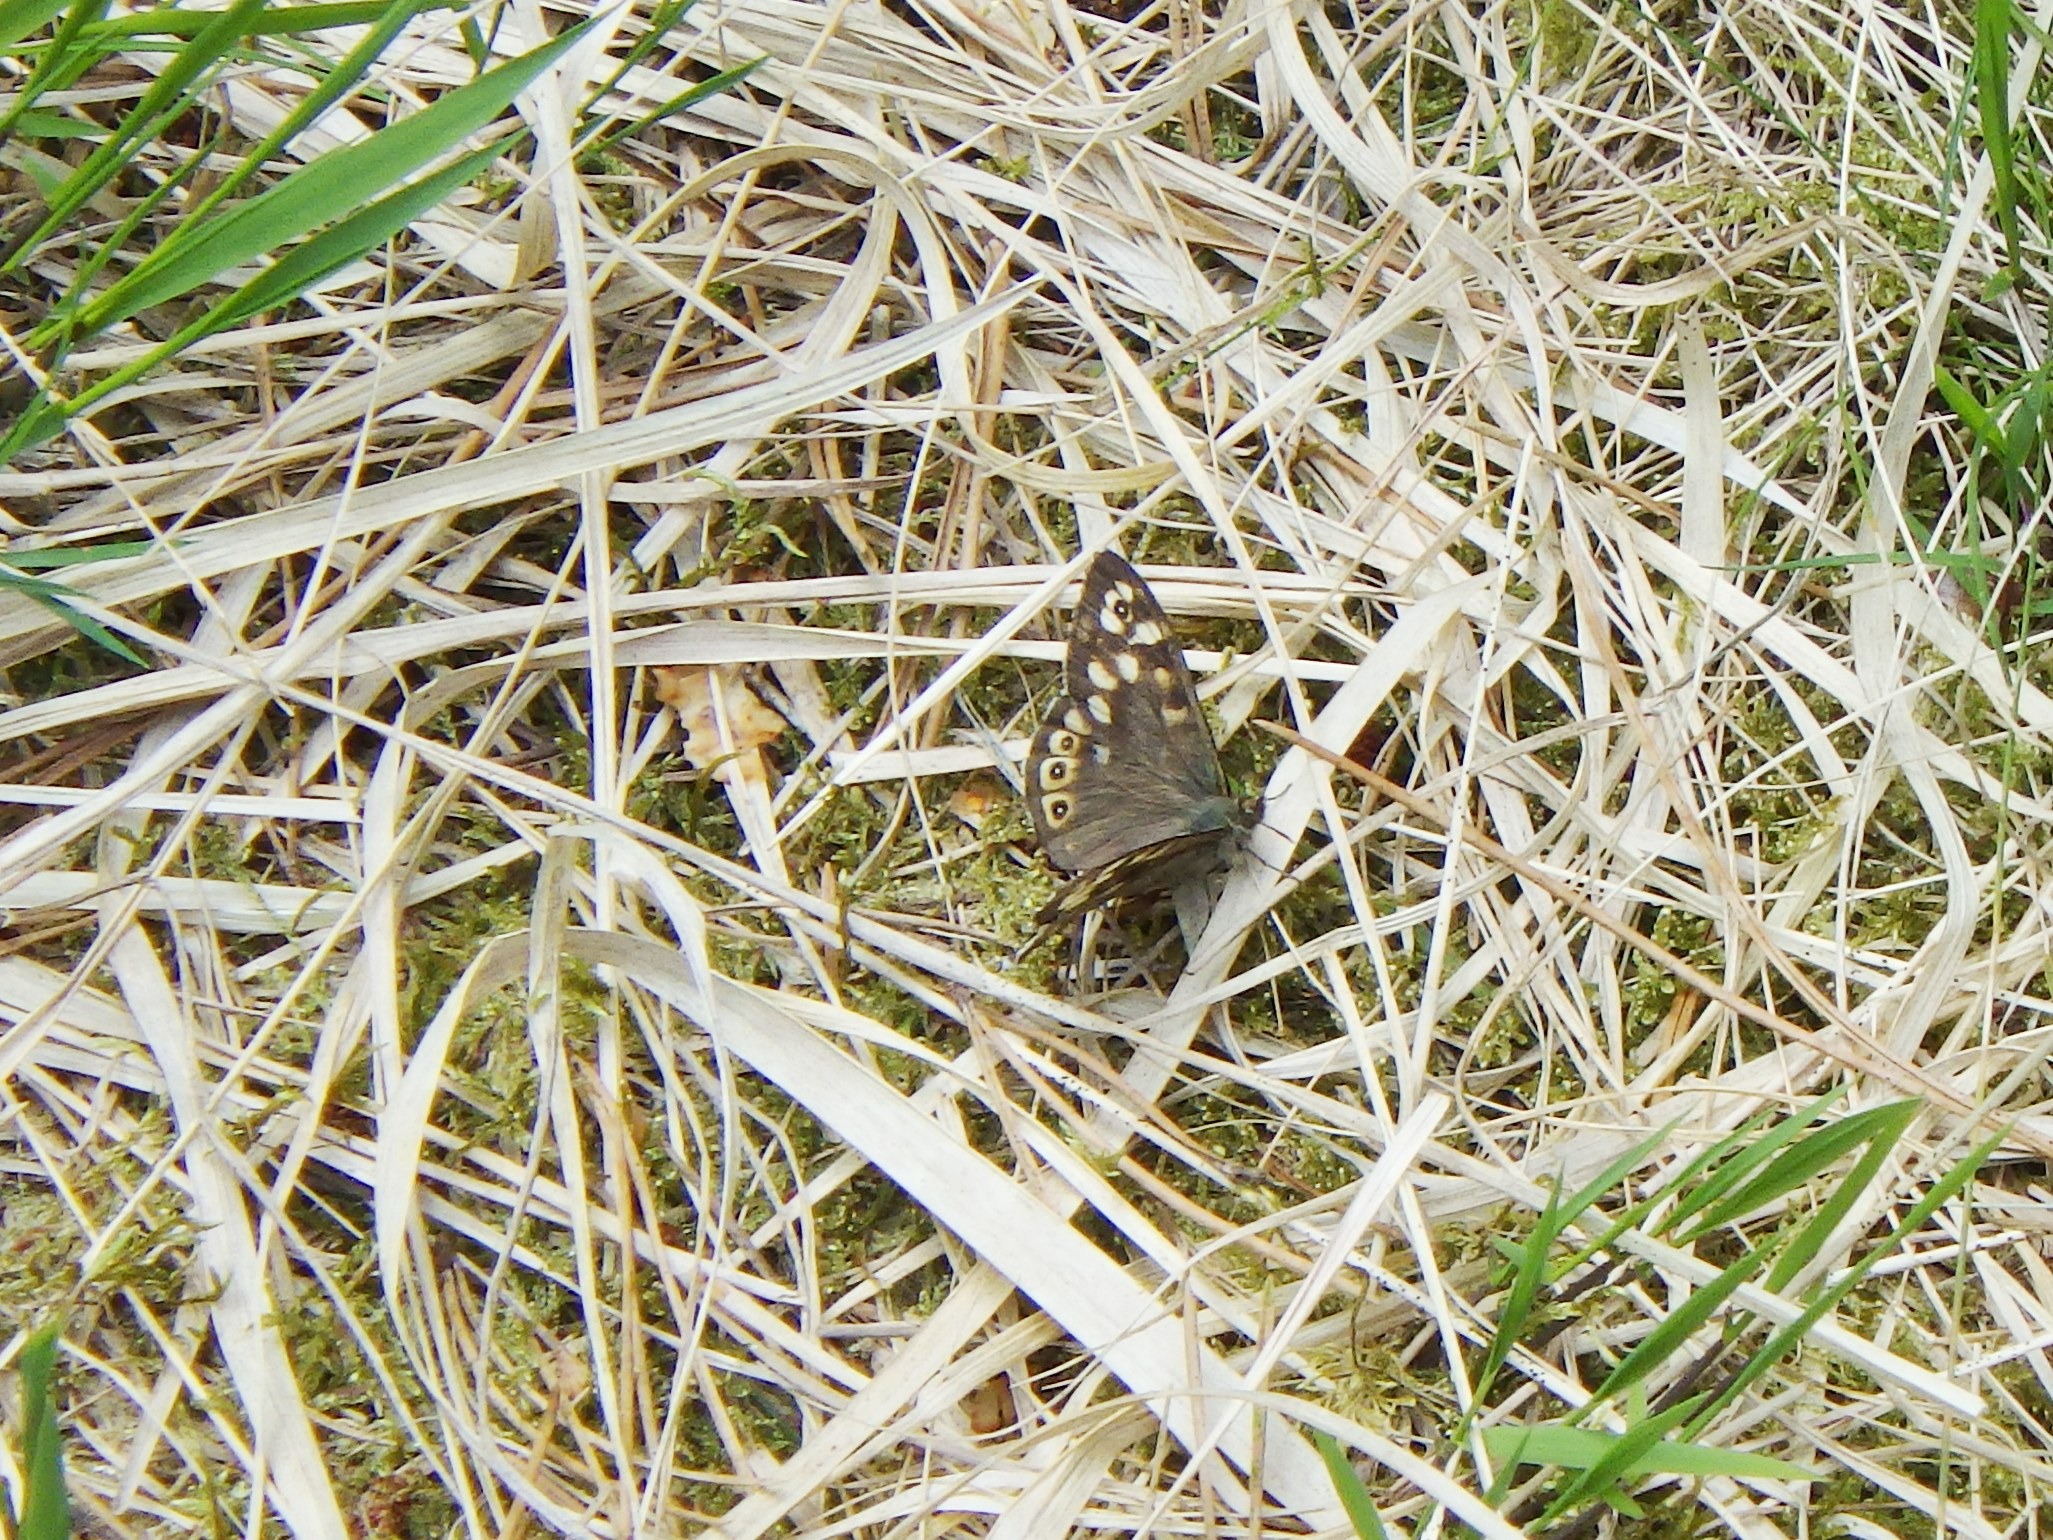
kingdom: Animalia
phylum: Arthropoda
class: Insecta
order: Lepidoptera
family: Nymphalidae
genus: Pararge
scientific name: Pararge aegeria
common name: Skovrandøje
